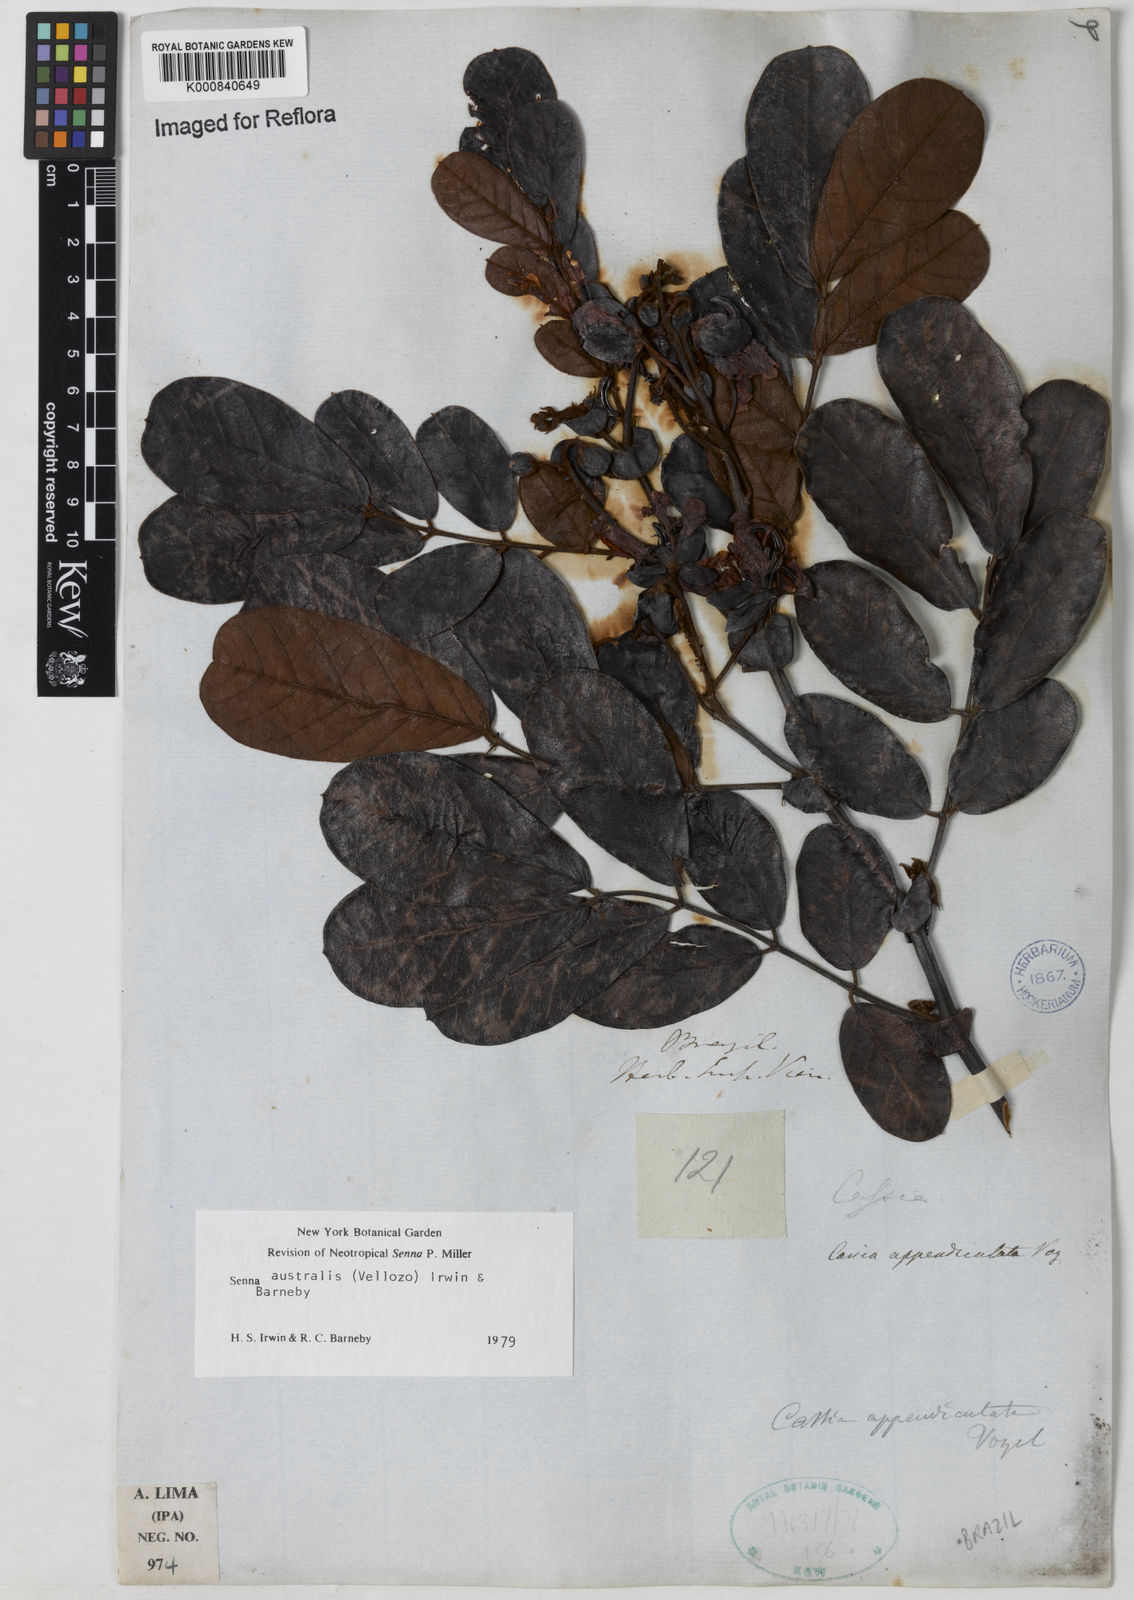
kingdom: Plantae
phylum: Tracheophyta
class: Magnoliopsida
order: Fabales
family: Fabaceae
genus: Senna
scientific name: Senna appendiculata
